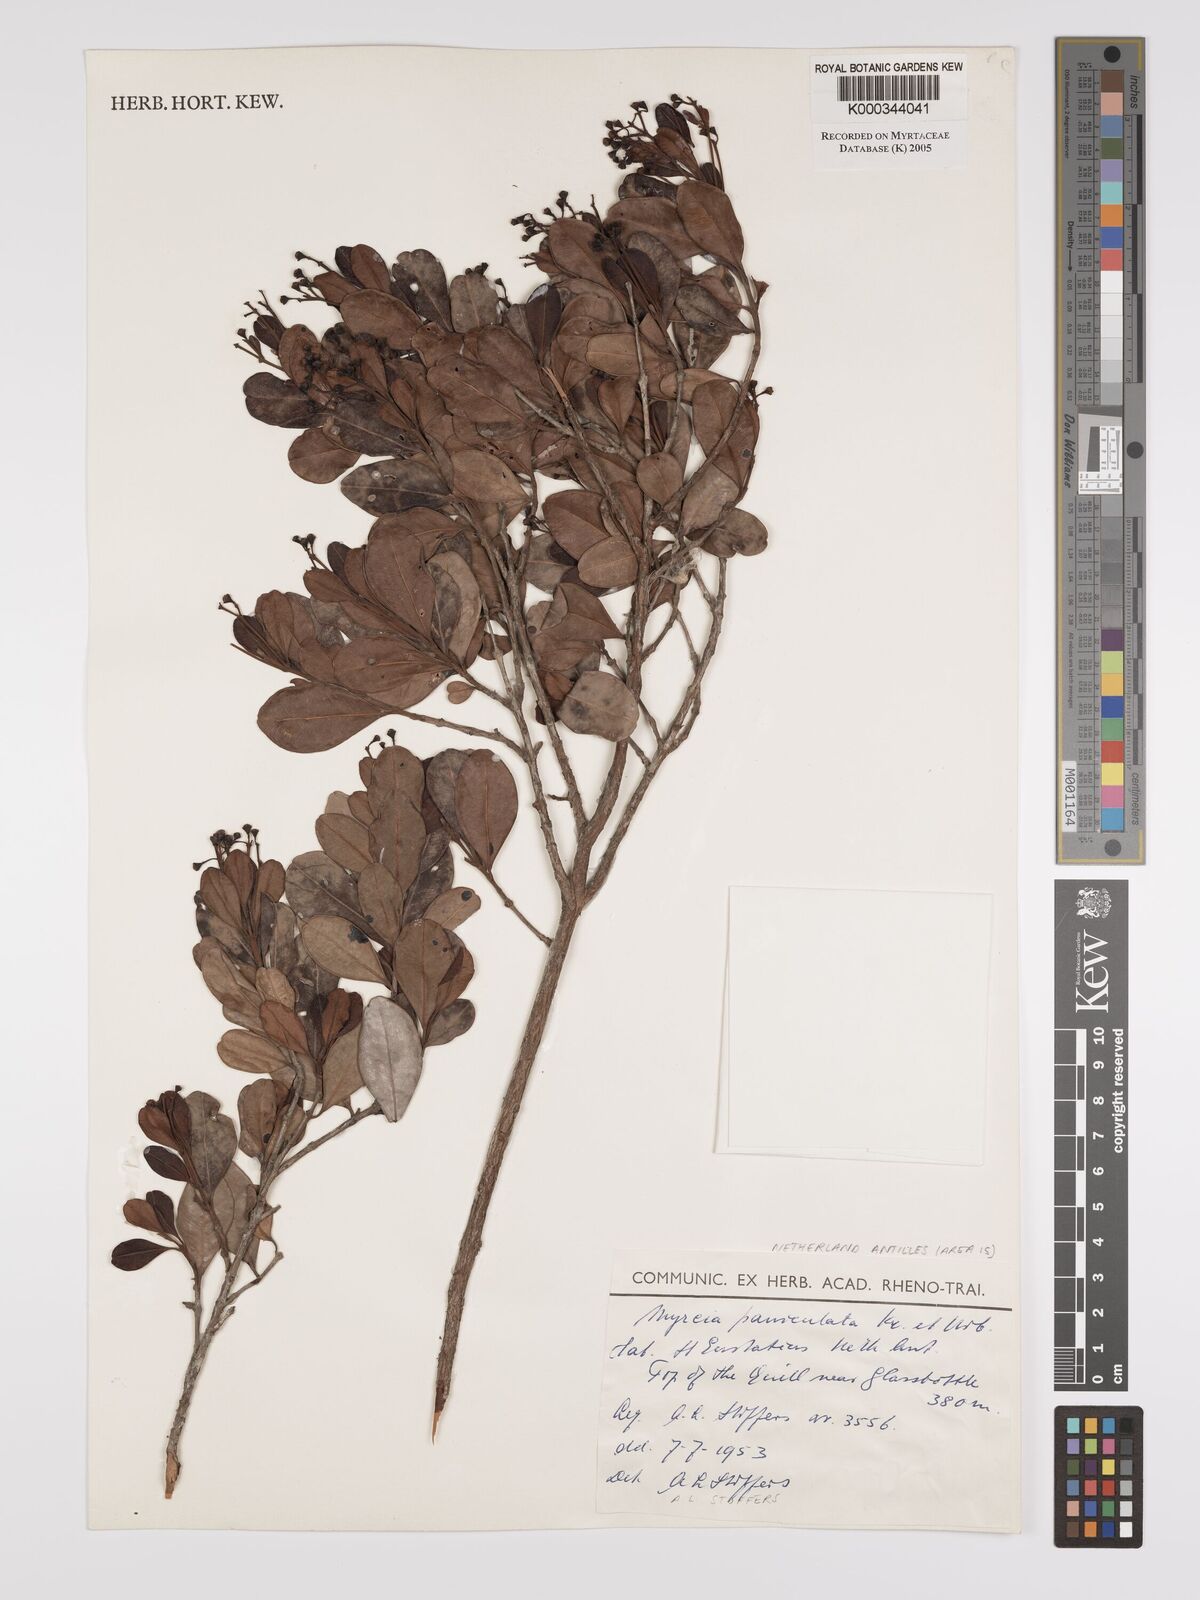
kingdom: Plantae
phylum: Tracheophyta
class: Magnoliopsida
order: Myrtales
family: Myrtaceae
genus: Myrcia
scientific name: Myrcia guianensis
